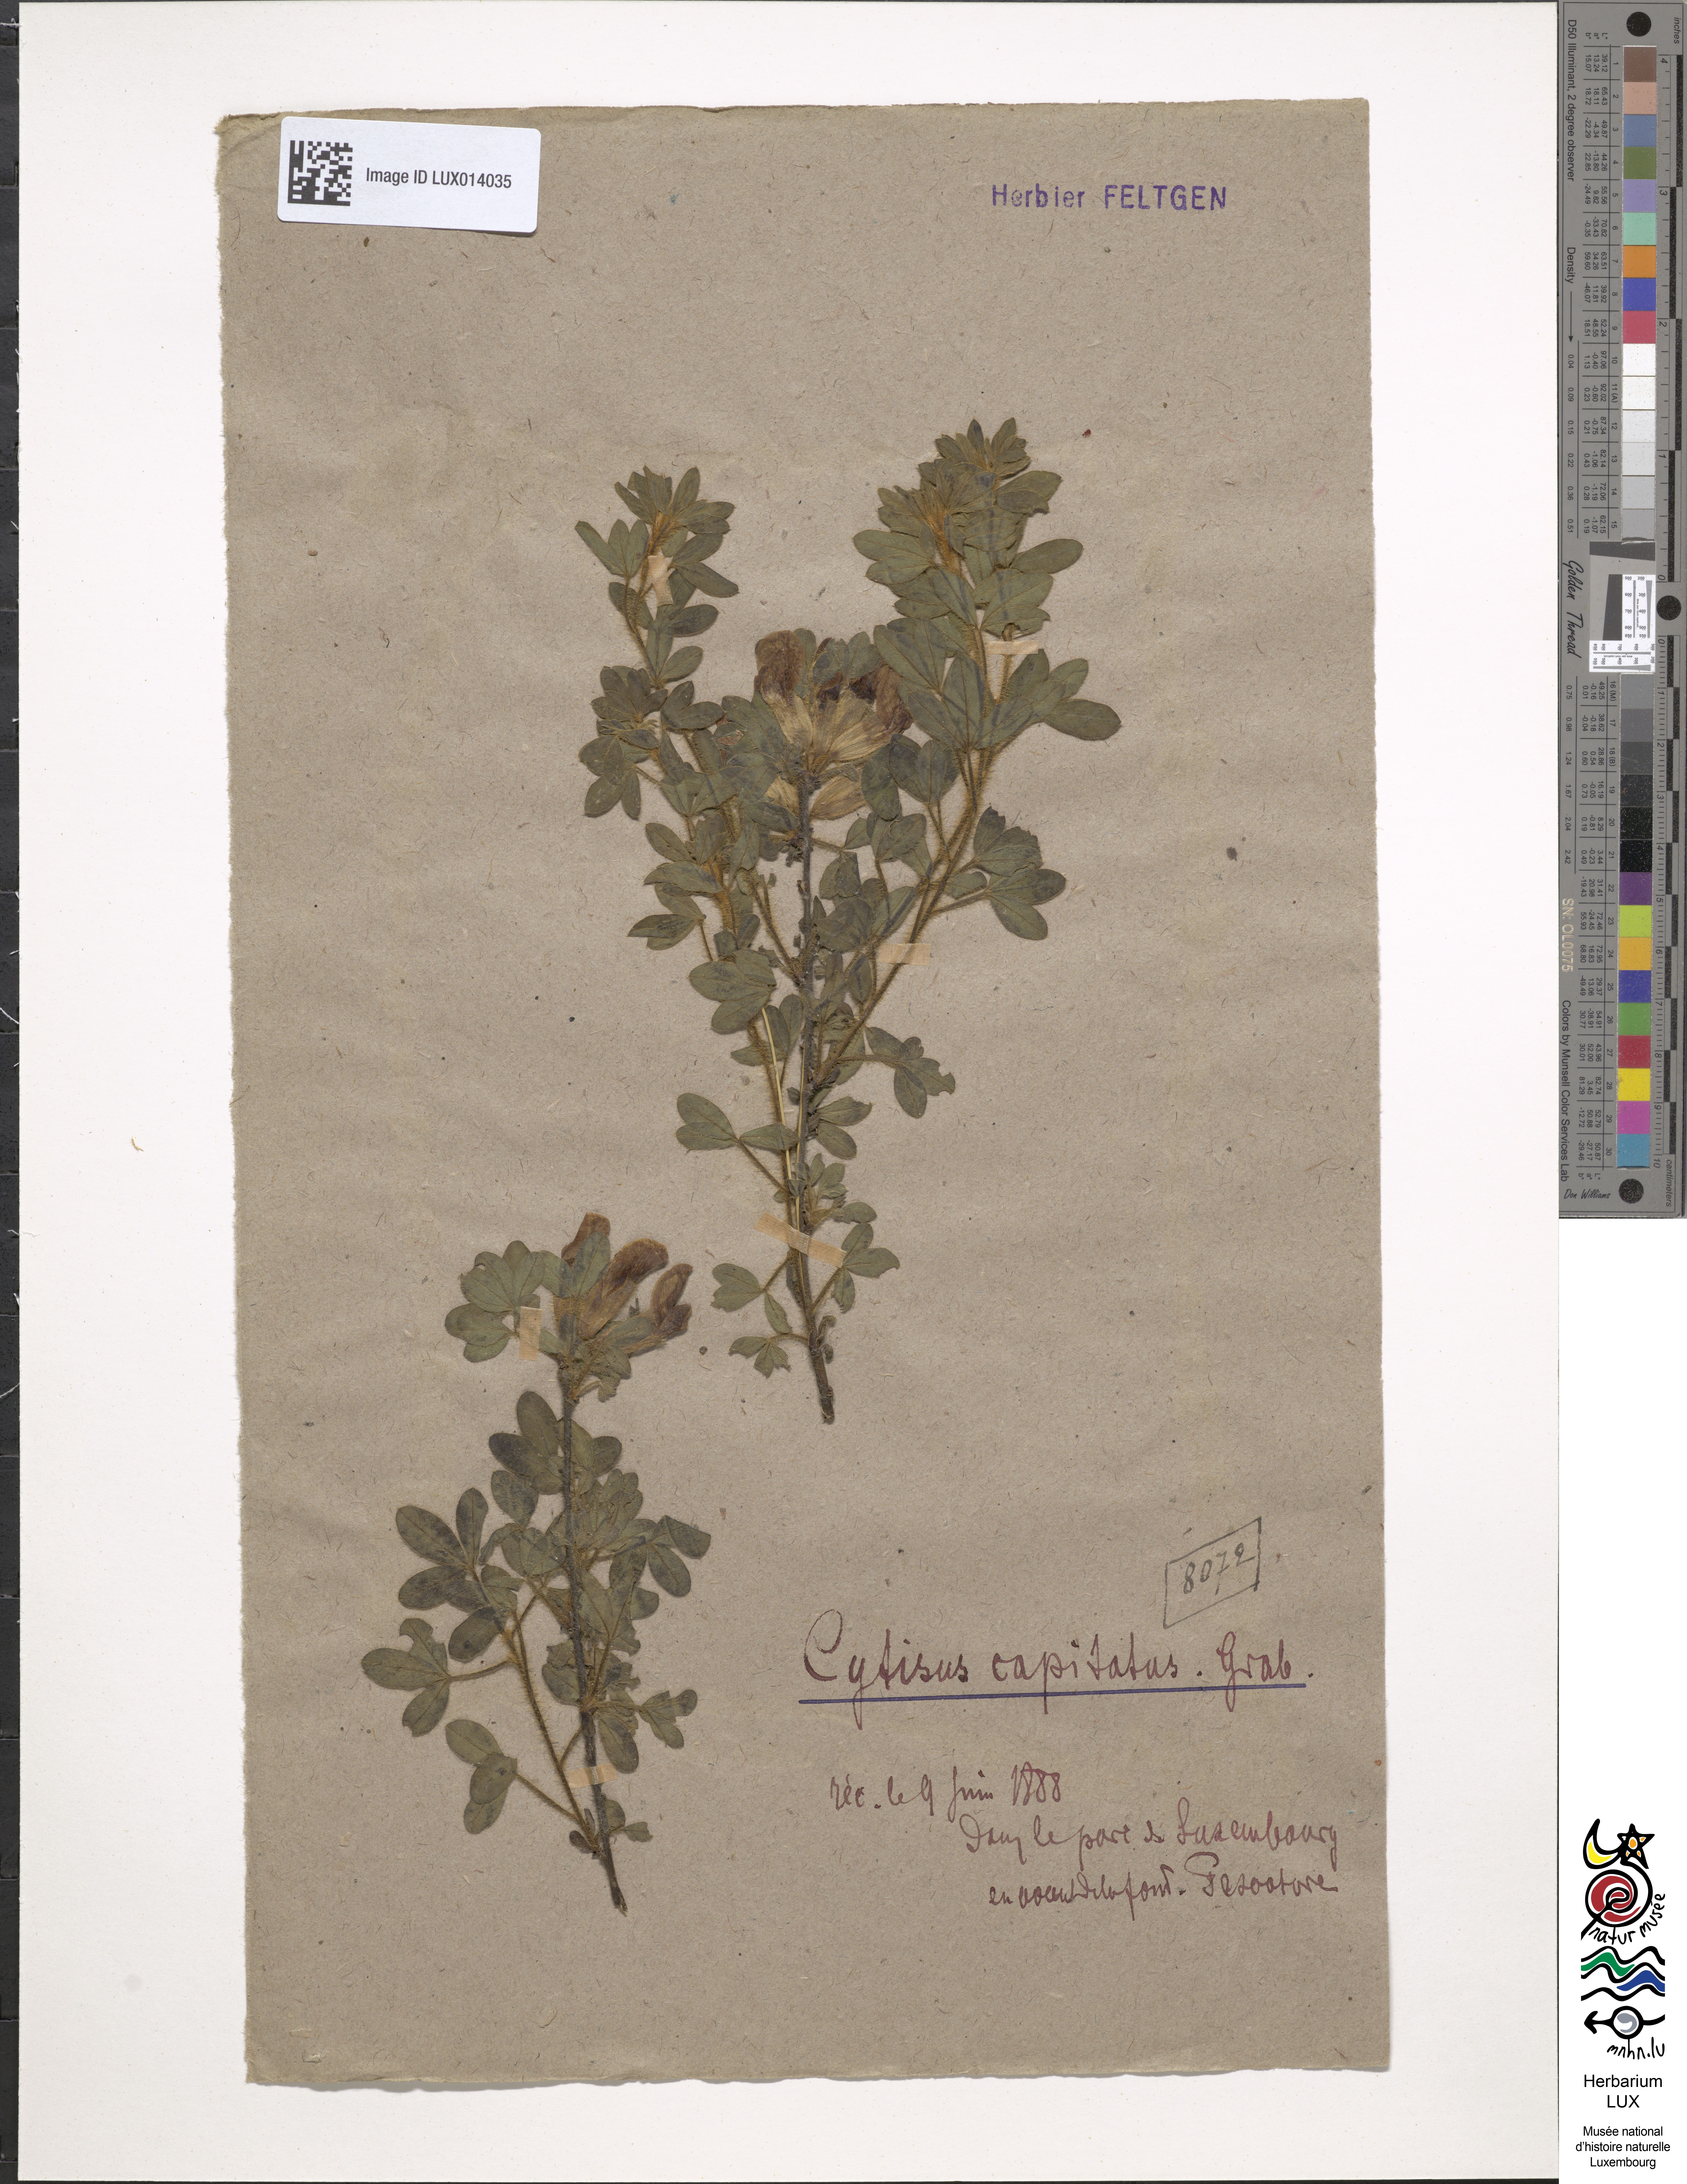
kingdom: Plantae
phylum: Tracheophyta
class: Magnoliopsida
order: Fabales
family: Fabaceae
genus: Chamaecytisus
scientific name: Chamaecytisus supinus
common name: Clustered broom
